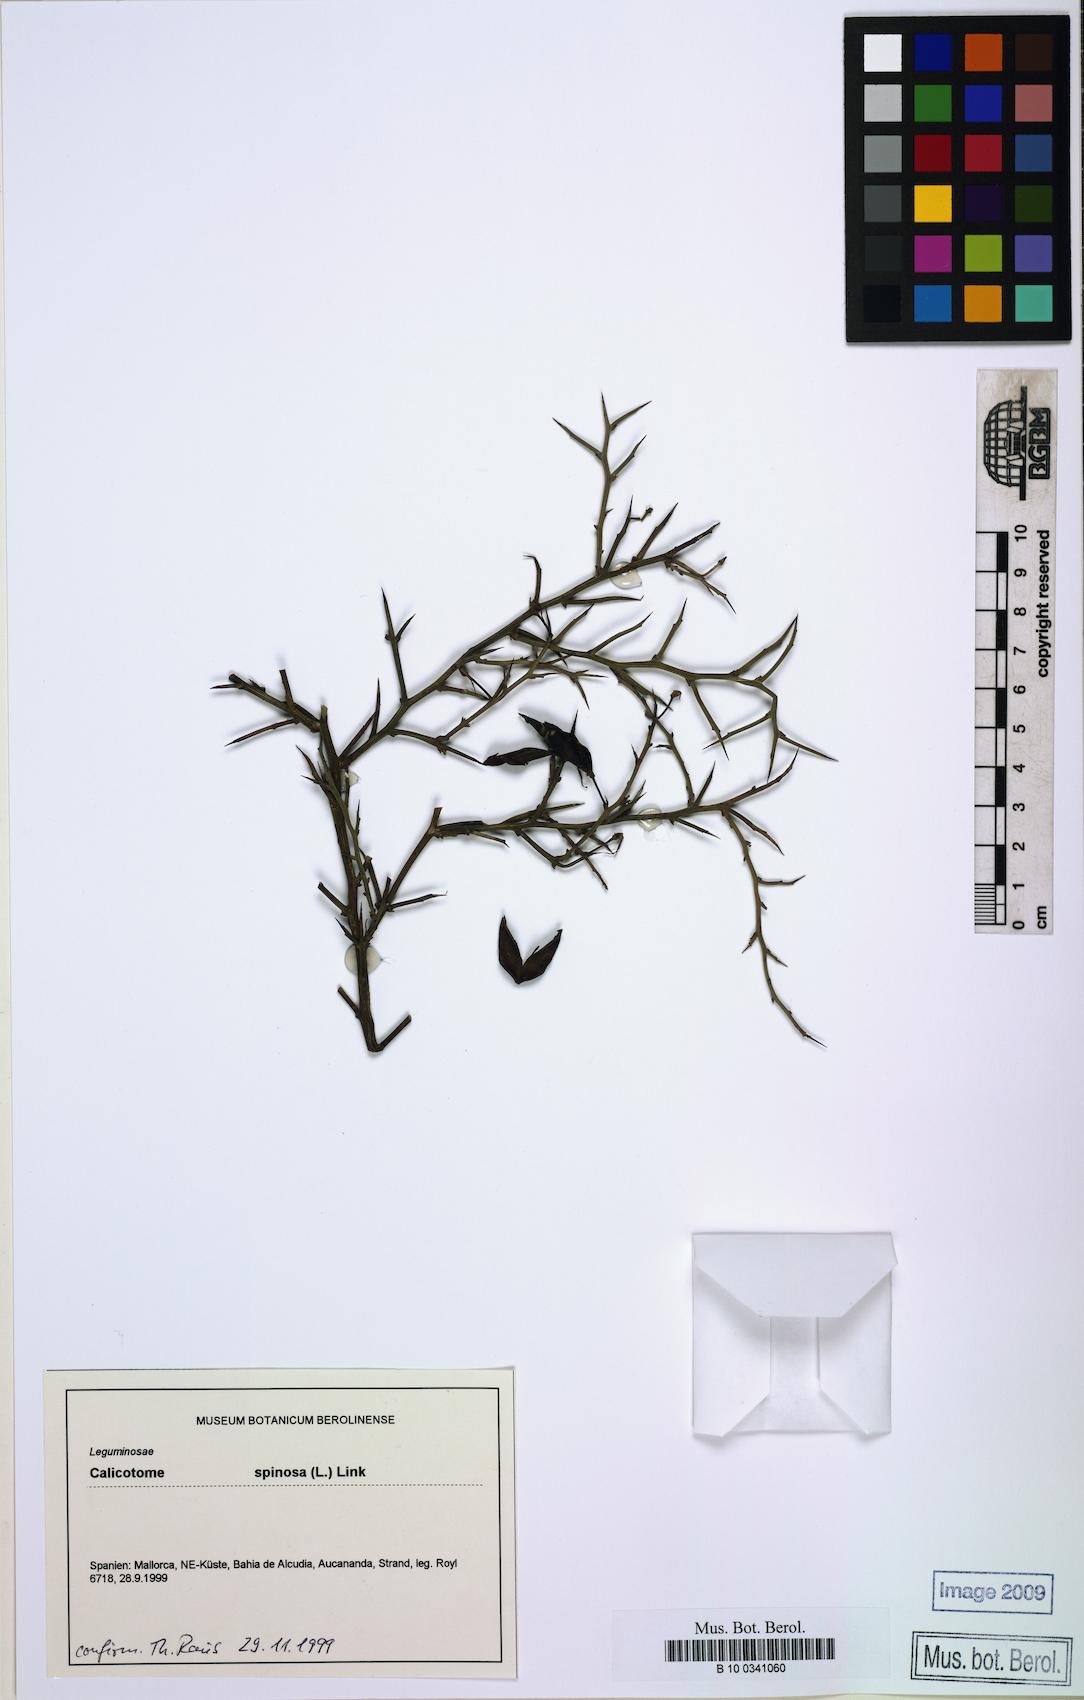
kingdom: Plantae
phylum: Tracheophyta
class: Magnoliopsida
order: Fabales
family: Fabaceae
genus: Calicotome
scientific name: Calicotome spinosa
